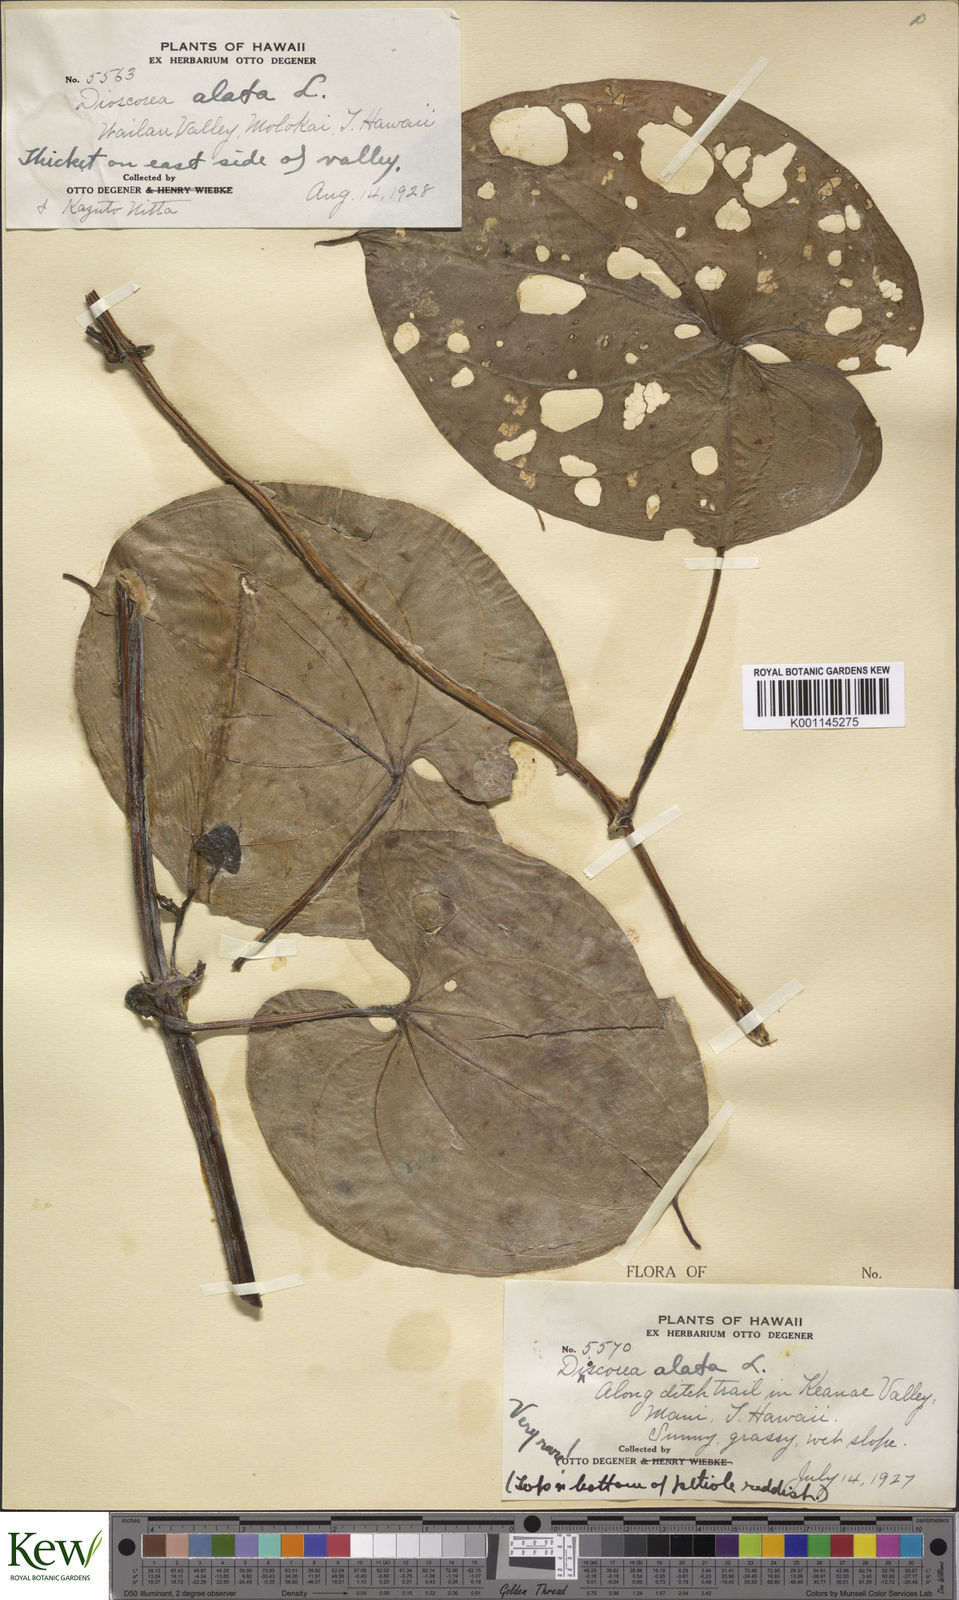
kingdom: Plantae
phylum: Tracheophyta
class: Liliopsida
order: Dioscoreales
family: Dioscoreaceae
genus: Dioscorea
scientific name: Dioscorea alata
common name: Water yam
